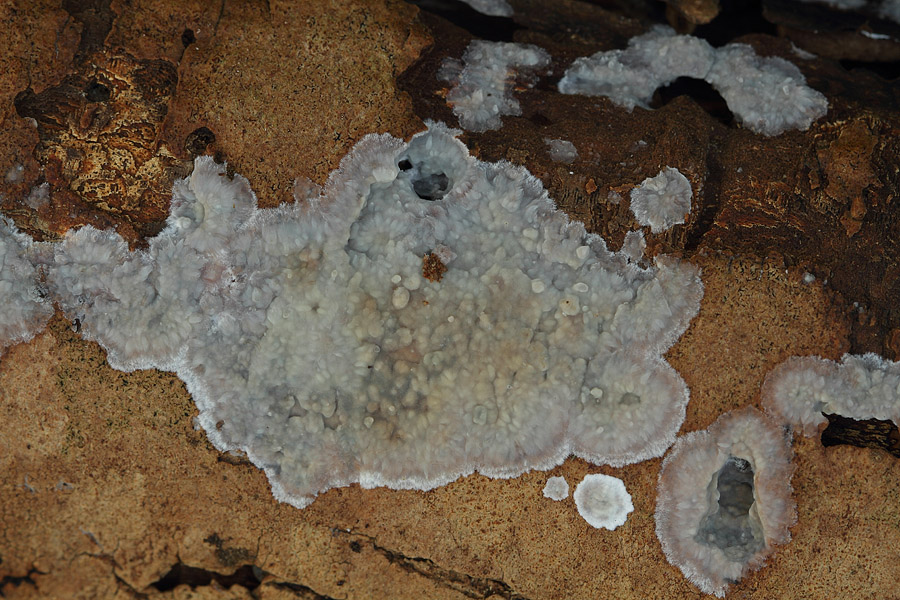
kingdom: Fungi
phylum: Basidiomycota
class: Agaricomycetes
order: Agaricales
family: Radulomycetaceae
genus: Radulomyces
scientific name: Radulomyces confluens
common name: glat naftalinskind
